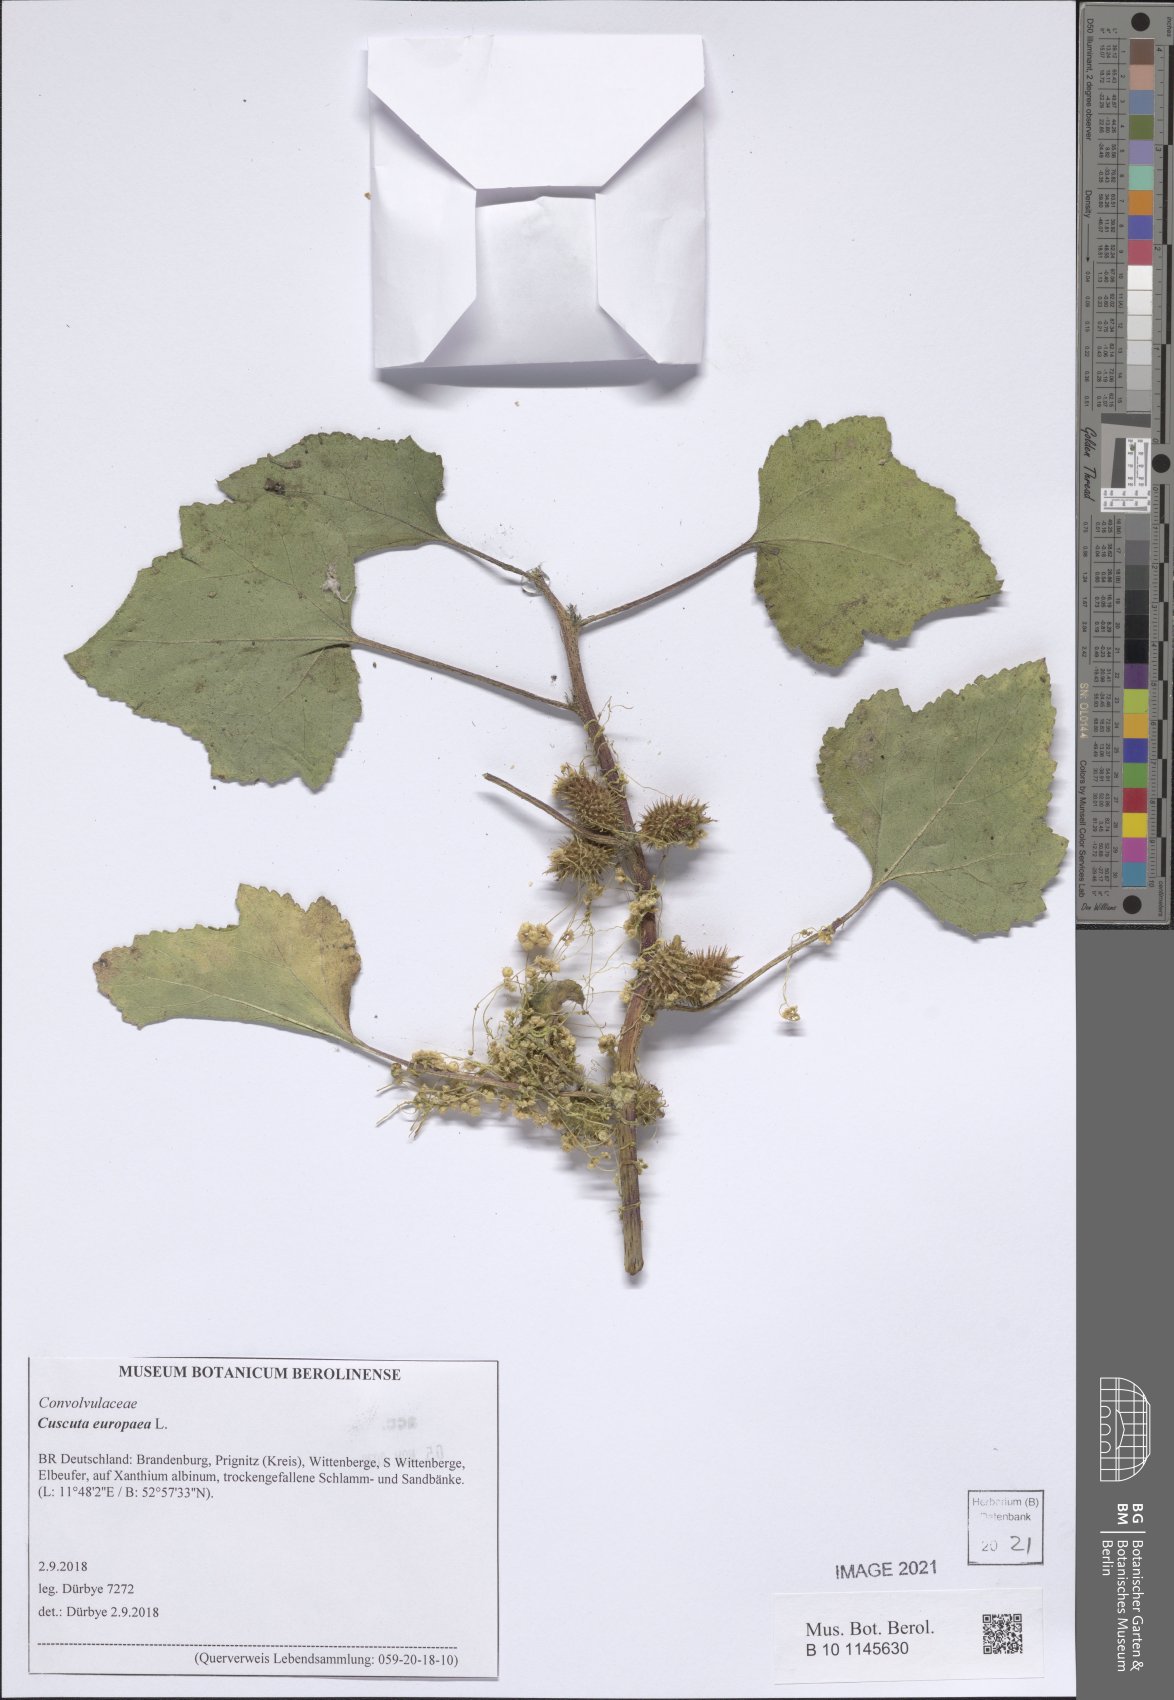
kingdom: Plantae
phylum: Tracheophyta
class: Magnoliopsida
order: Solanales
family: Convolvulaceae
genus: Cuscuta
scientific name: Cuscuta europaea
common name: Greater dodder
